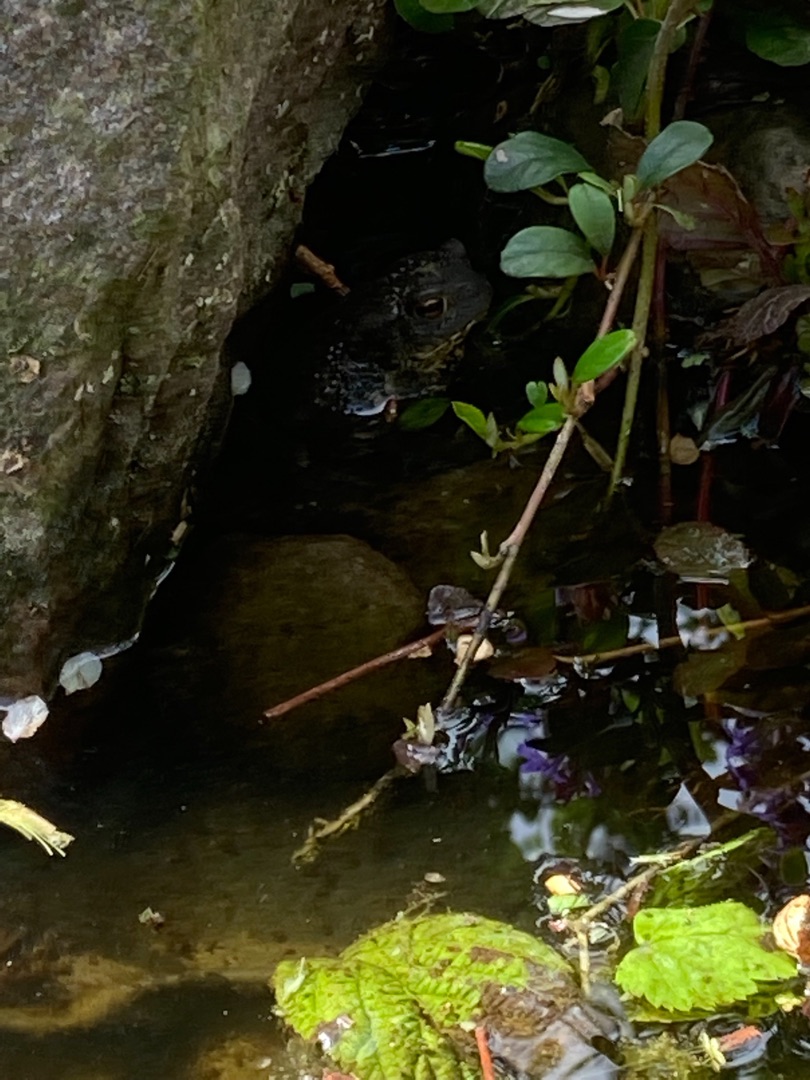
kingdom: Animalia
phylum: Chordata
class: Amphibia
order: Anura
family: Bufonidae
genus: Bufo
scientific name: Bufo bufo
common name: Skrubtudse
